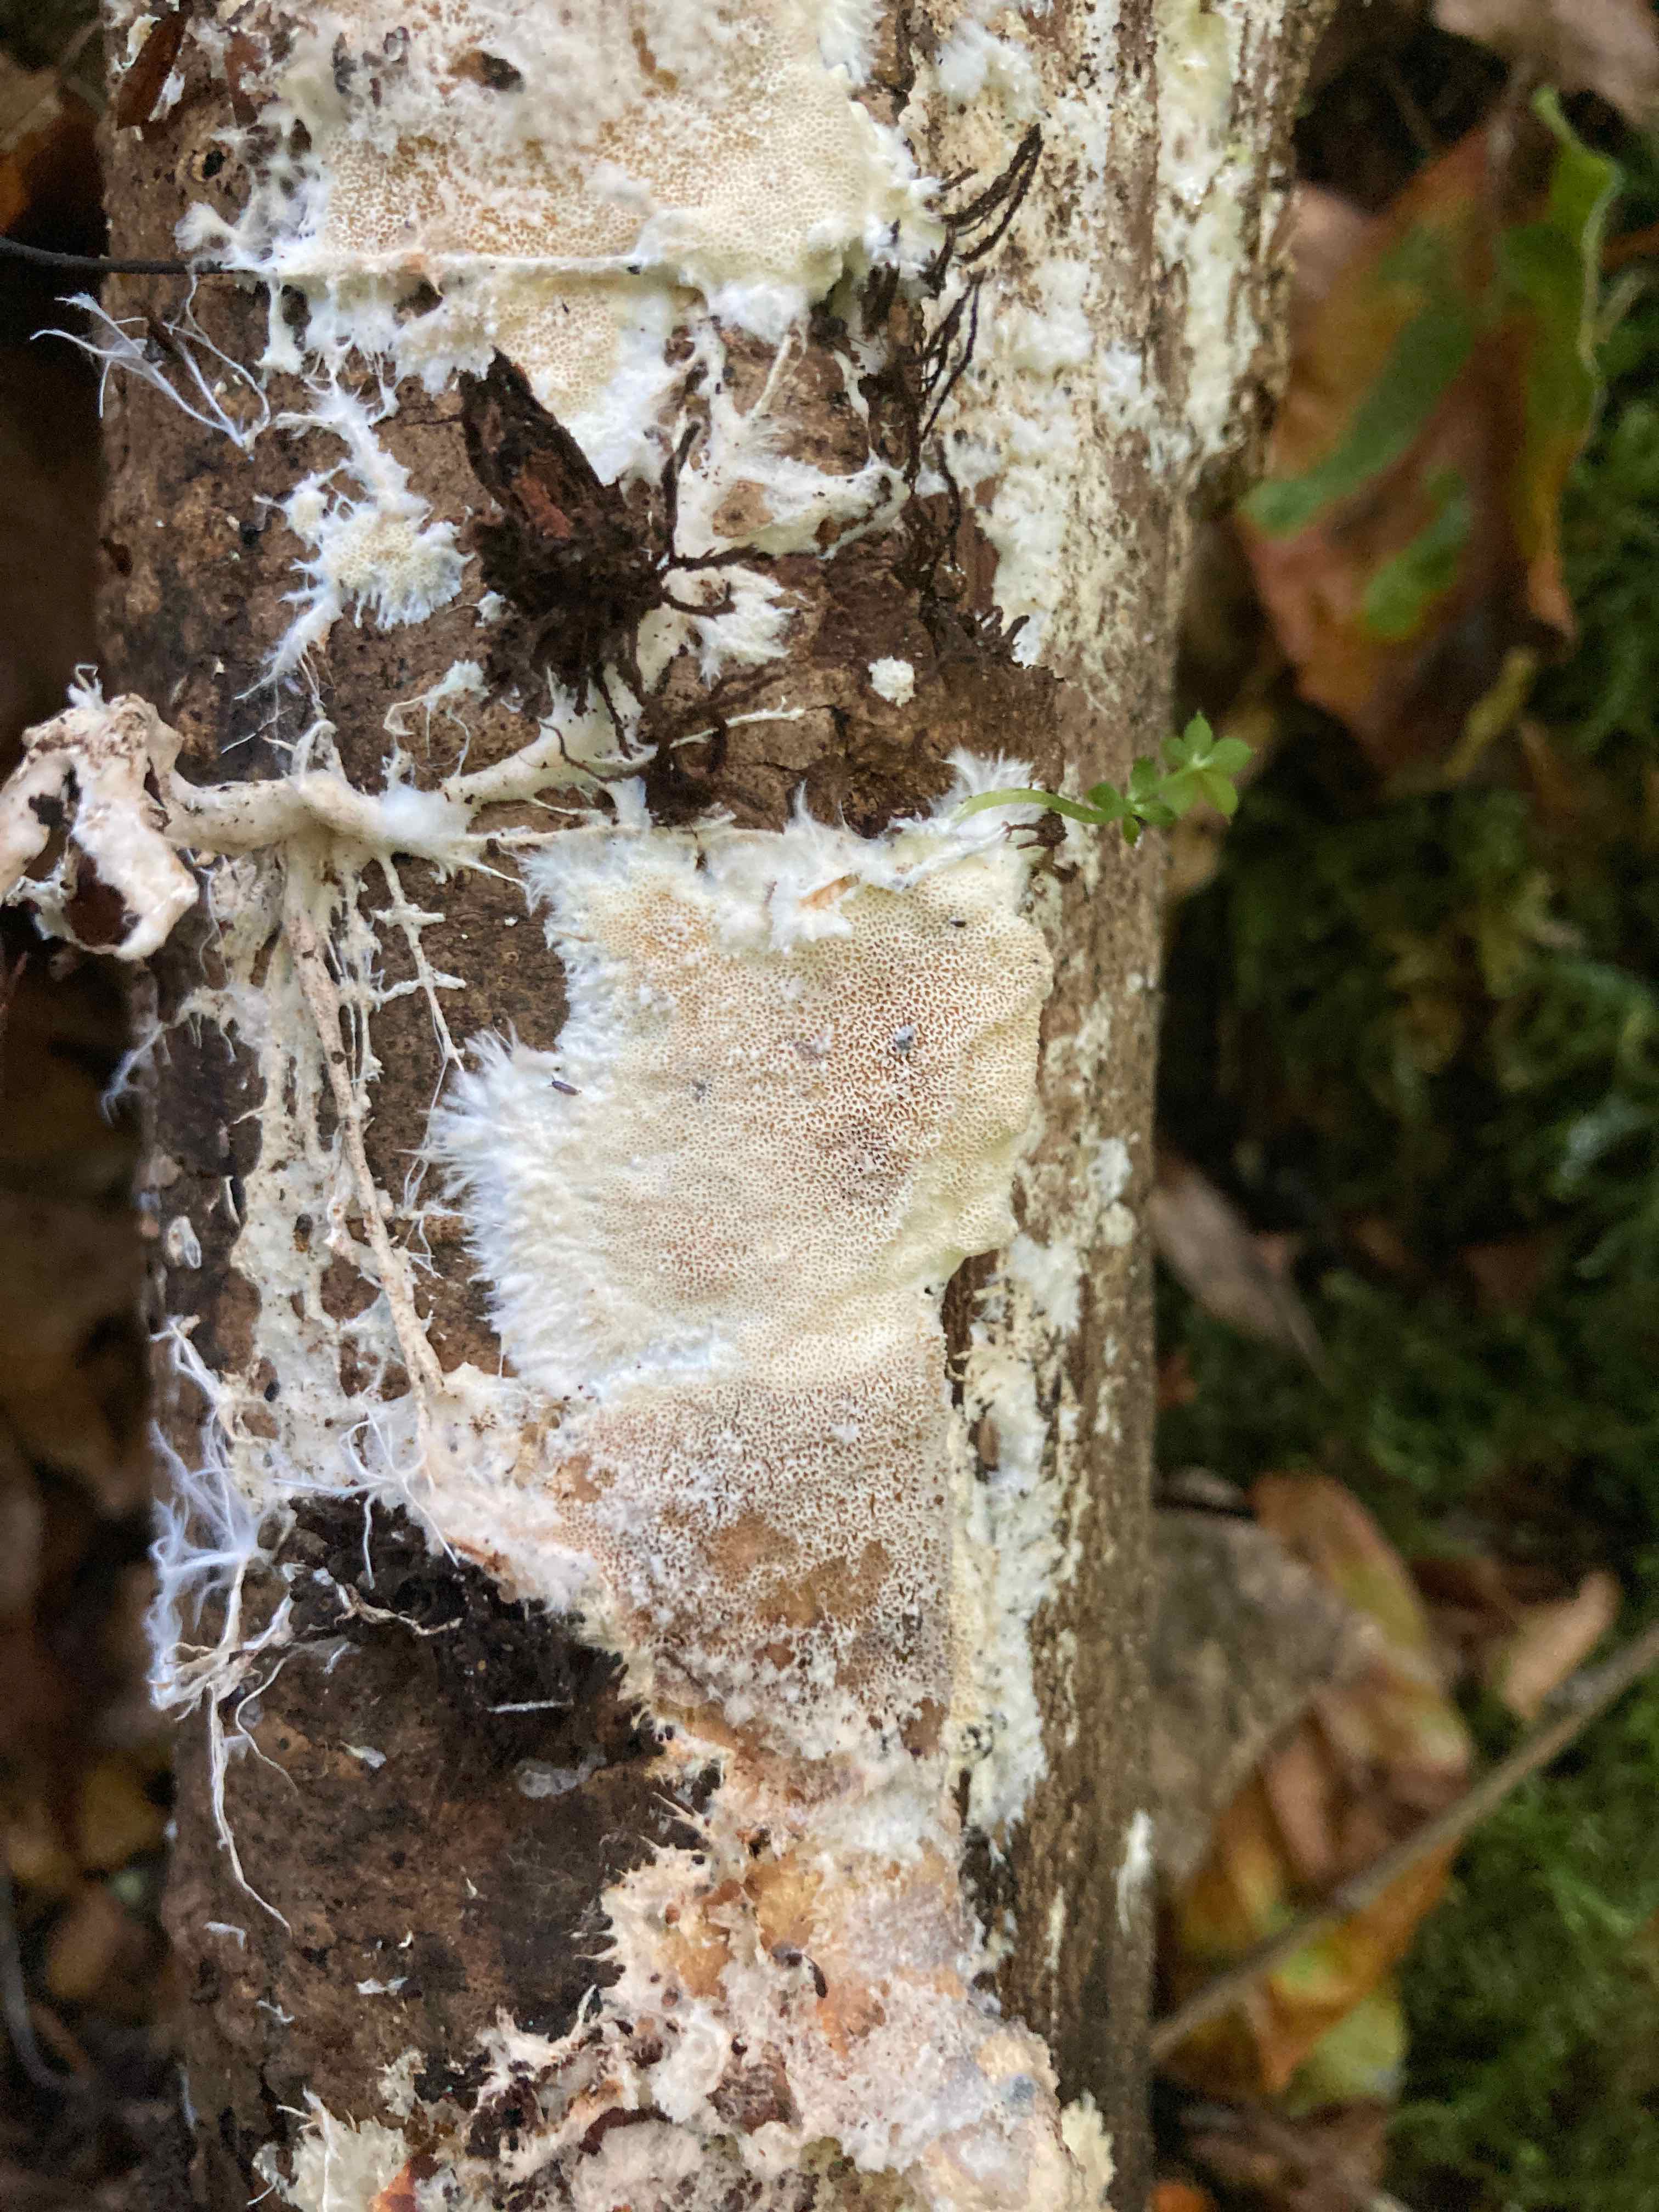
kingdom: Fungi
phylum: Basidiomycota
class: Agaricomycetes
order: Agaricales
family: Porotheleaceae
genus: Porotheleum
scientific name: Porotheleum fimbriatum
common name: poreskål
